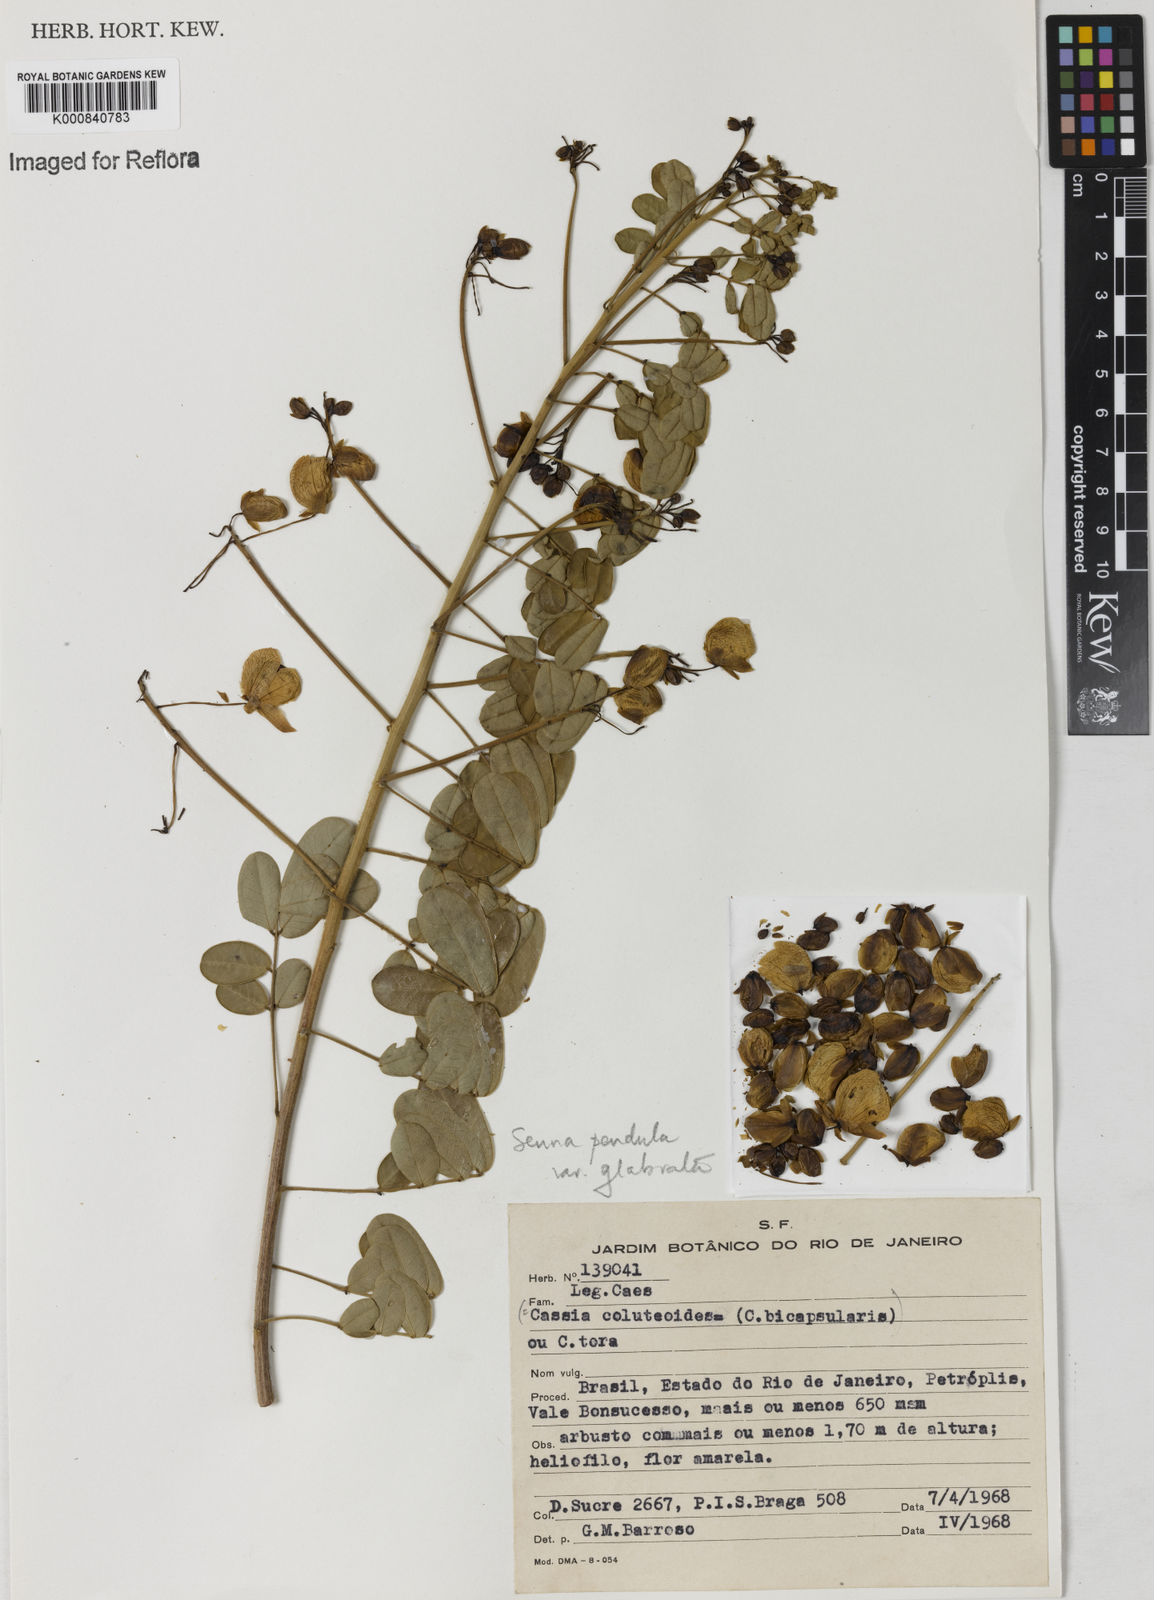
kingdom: Plantae
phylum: Tracheophyta
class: Magnoliopsida
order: Fabales
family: Fabaceae
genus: Senna
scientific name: Senna pendula
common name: Easter cassia
